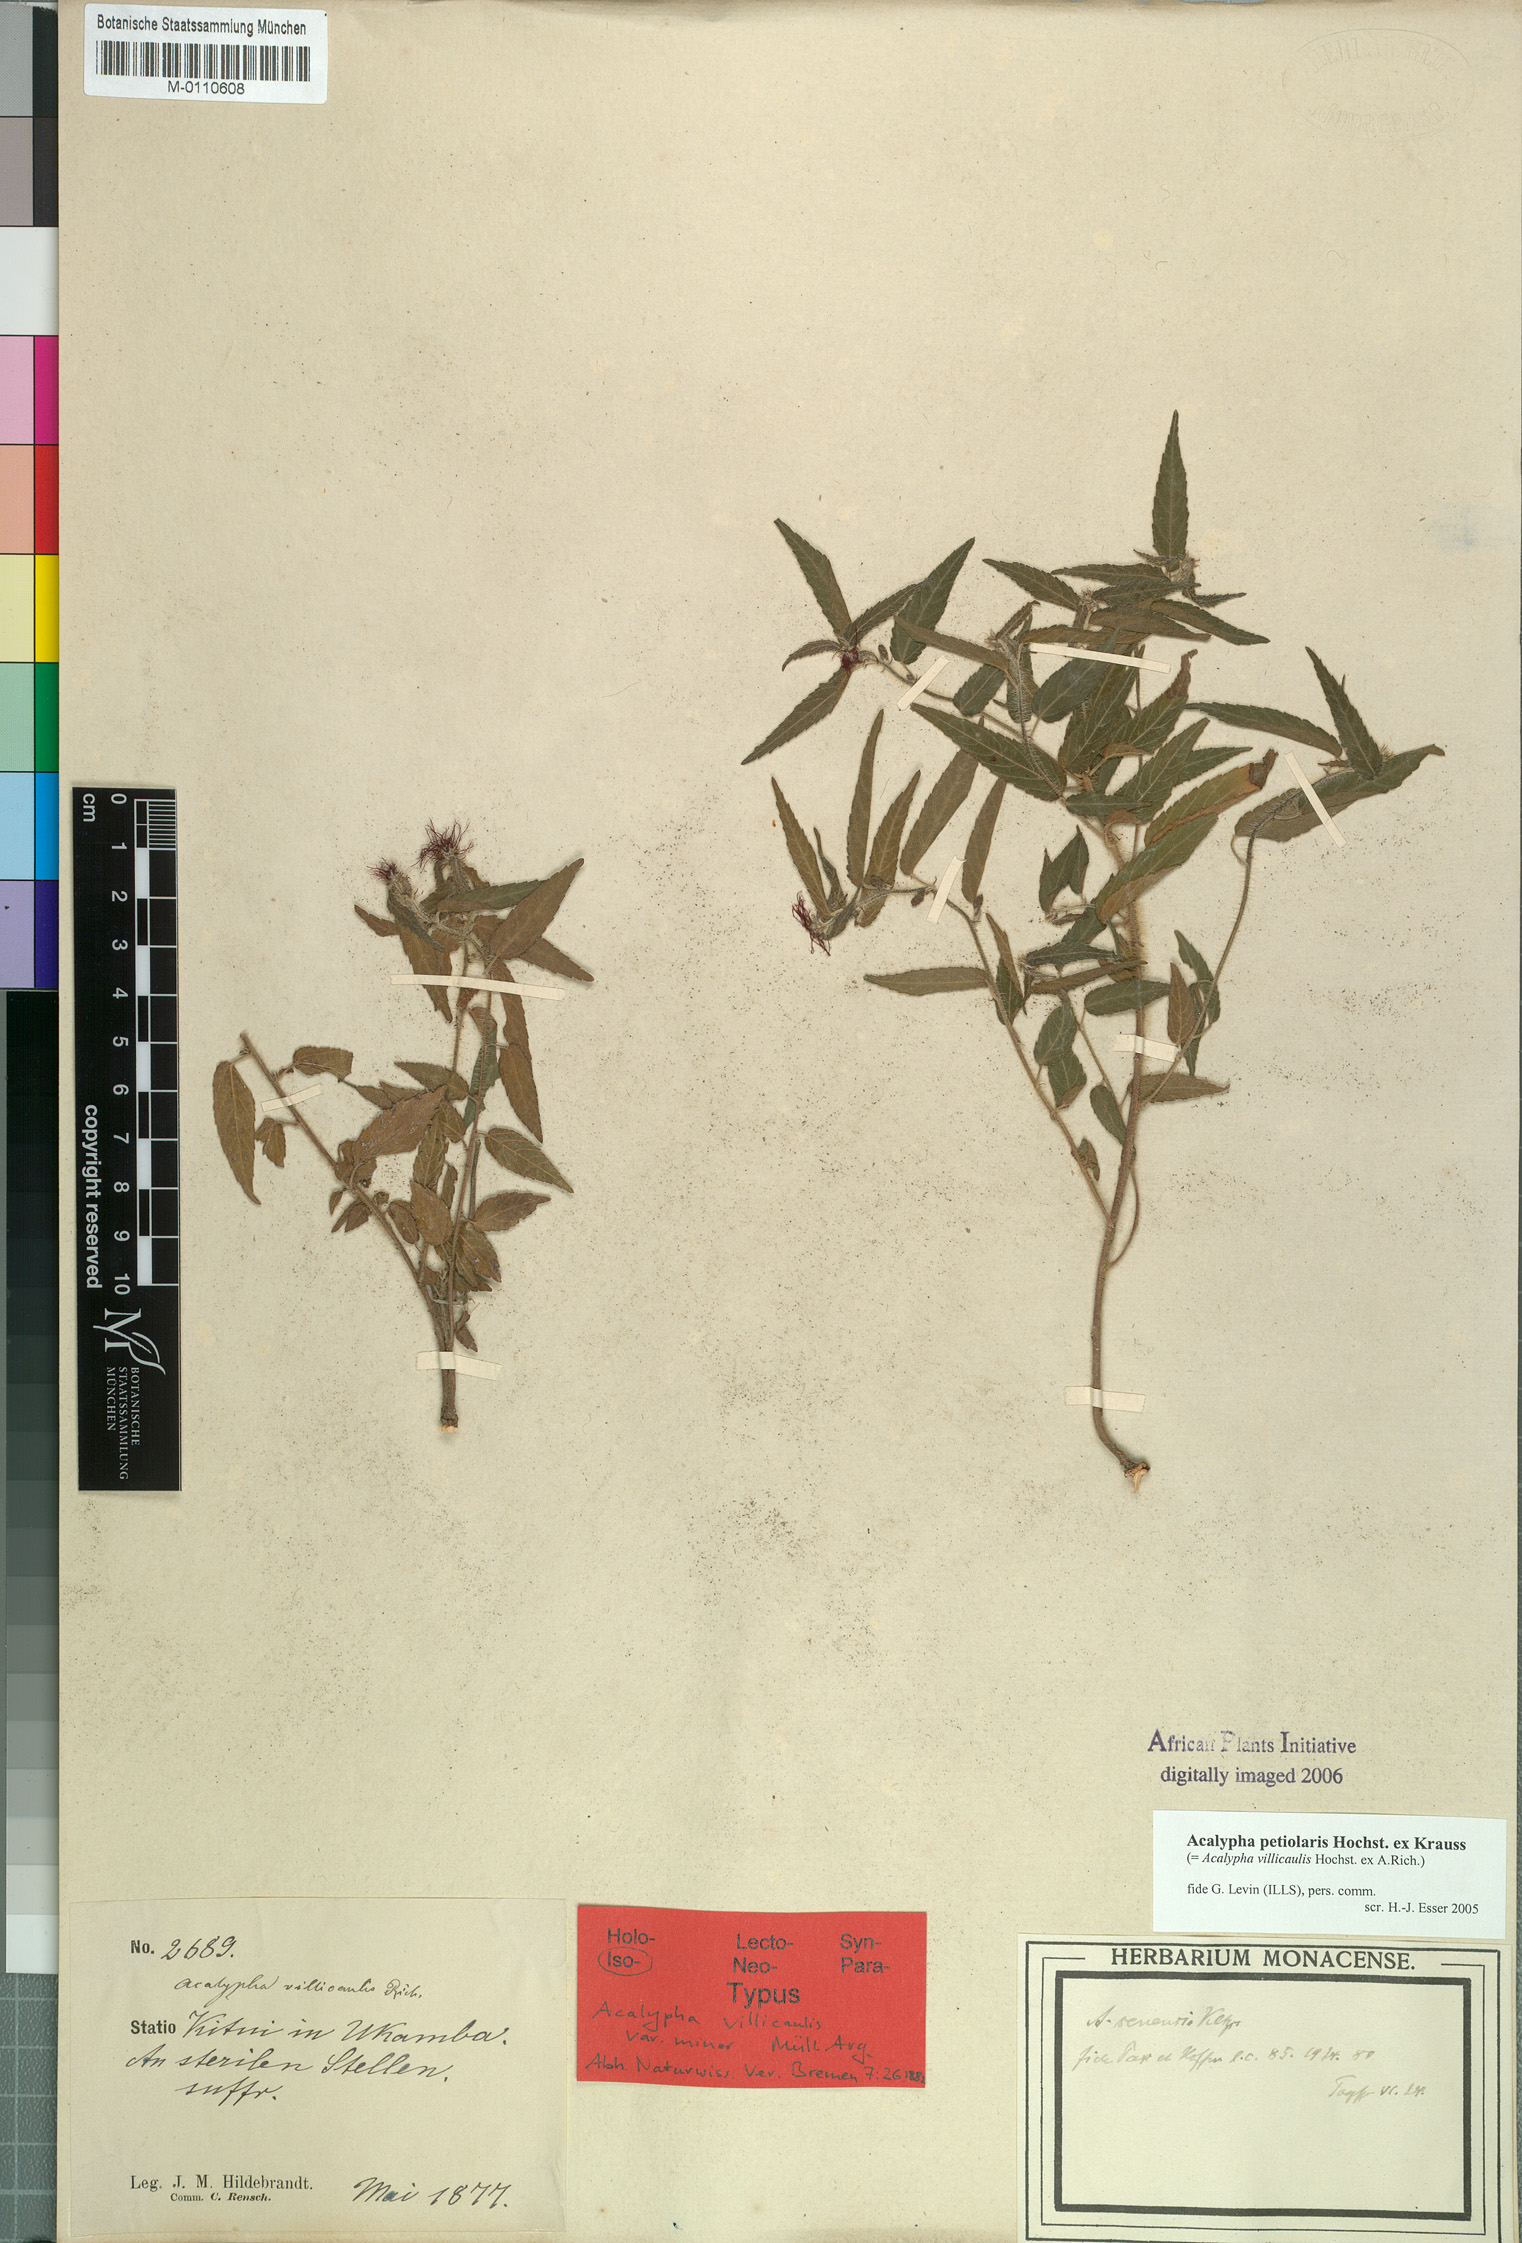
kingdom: Plantae
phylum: Tracheophyta
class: Magnoliopsida
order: Malpighiales
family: Euphorbiaceae
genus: Acalypha
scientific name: Acalypha petiolaris
